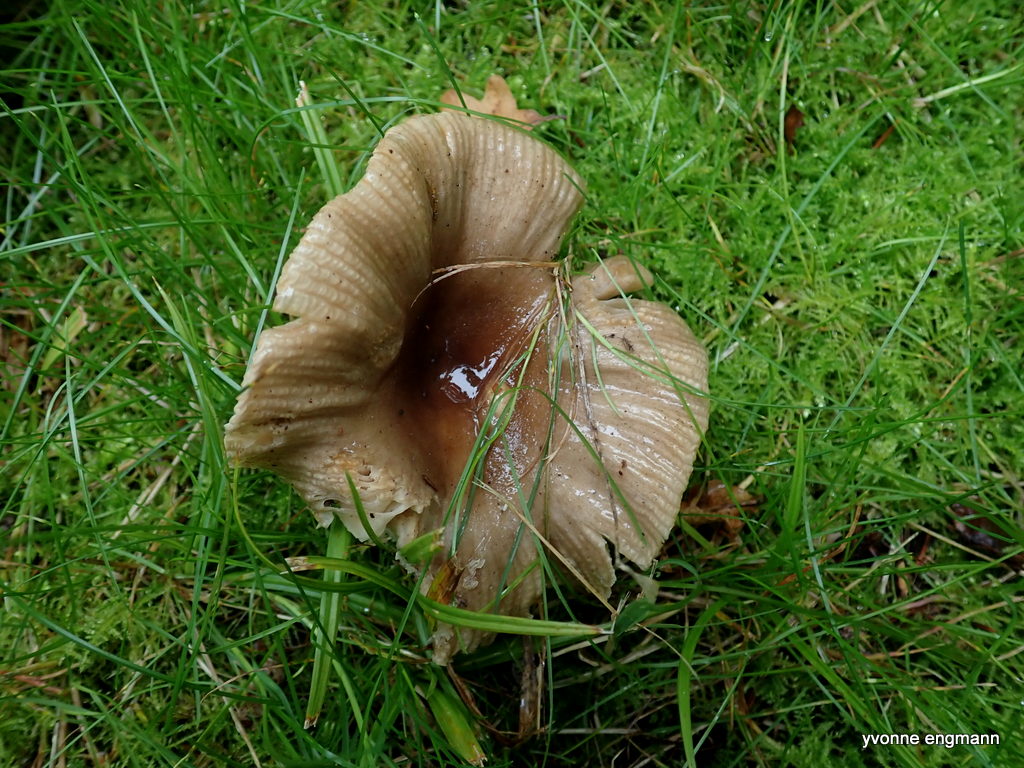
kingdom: Fungi
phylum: Basidiomycota
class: Agaricomycetes
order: Russulales
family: Russulaceae
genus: Russula
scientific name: Russula recondita
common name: mild kam-skørhat
